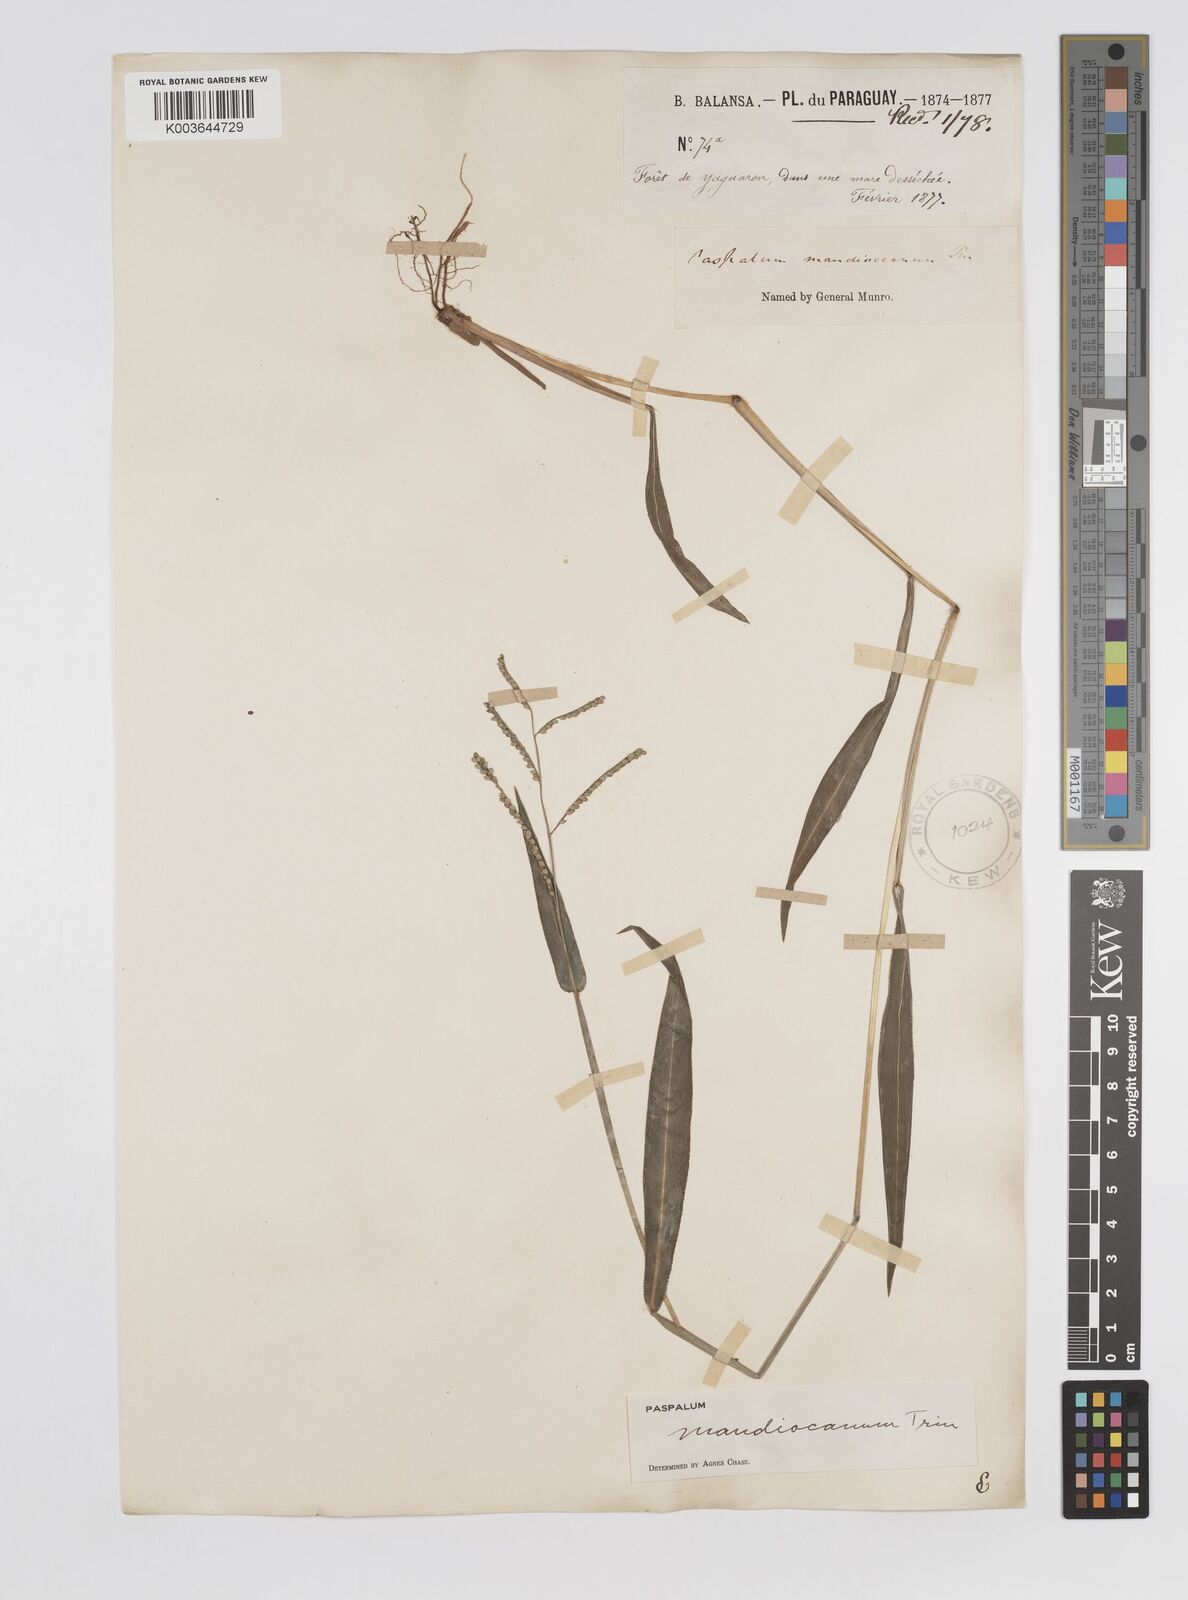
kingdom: Plantae
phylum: Tracheophyta
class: Liliopsida
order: Poales
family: Poaceae
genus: Paspalum
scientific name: Paspalum mandiocanum
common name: Paspalum
